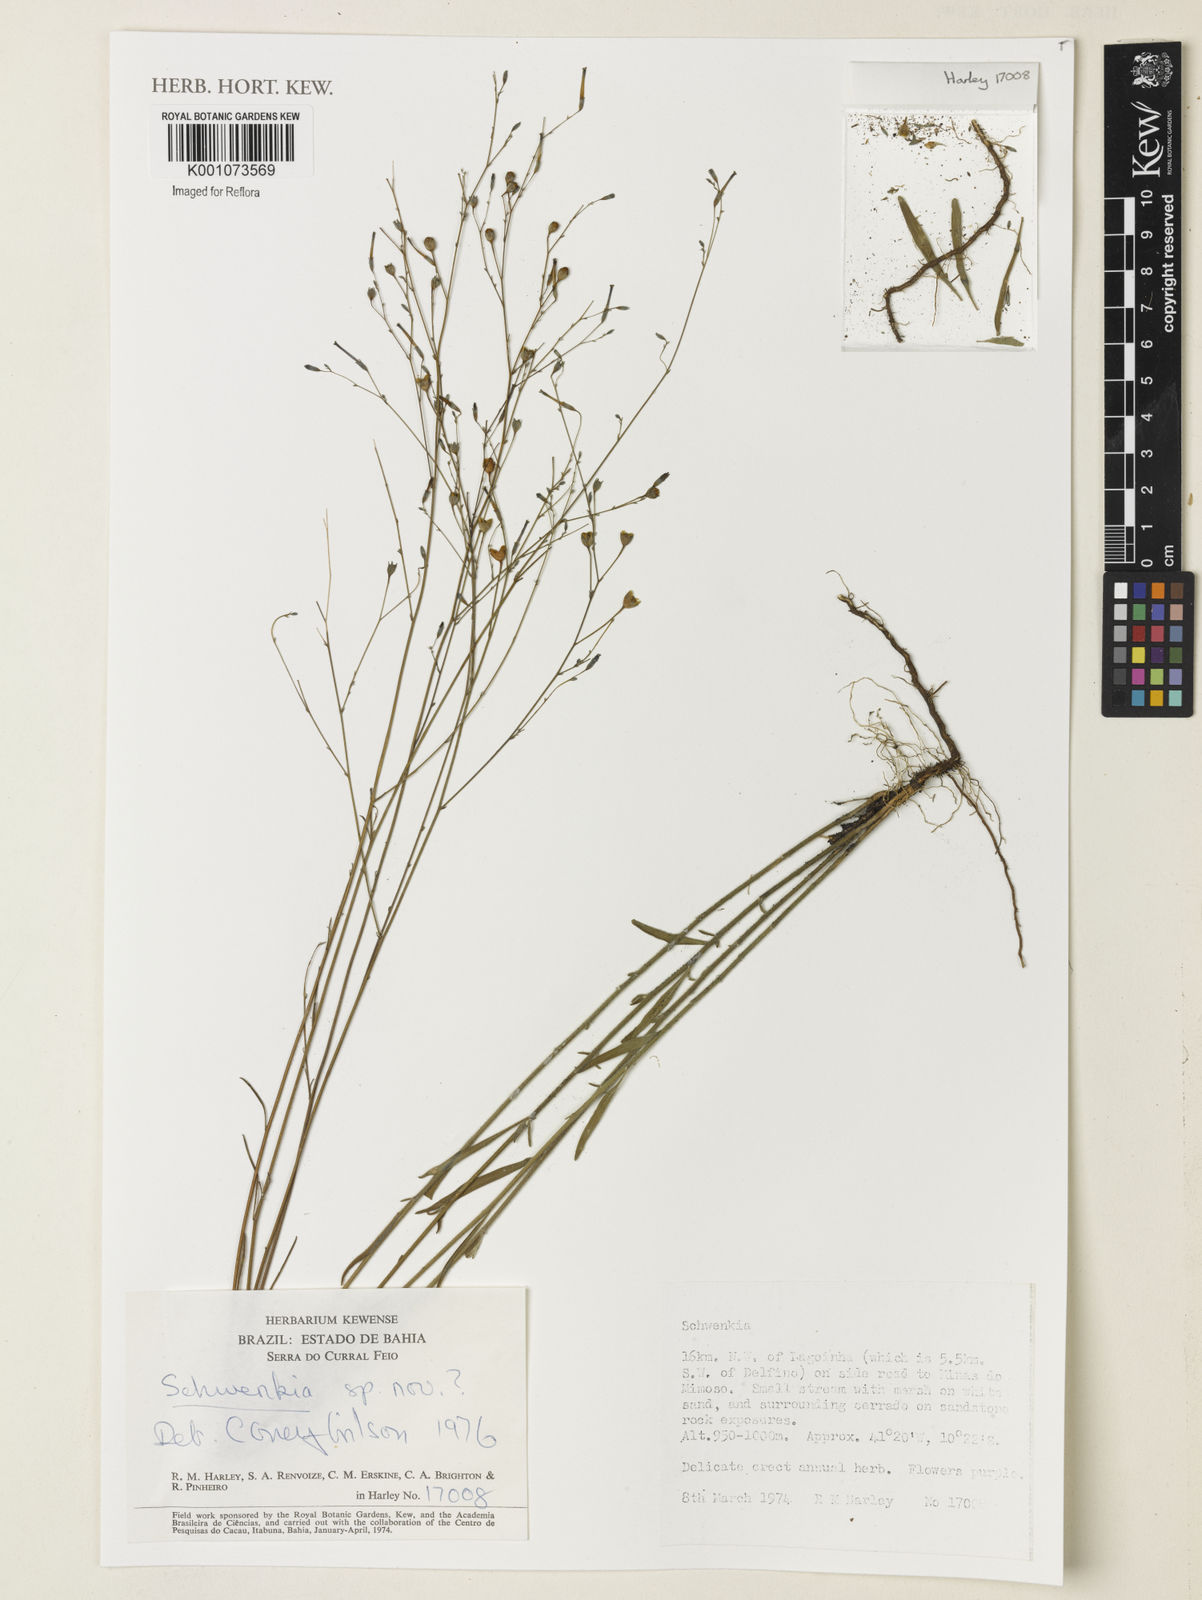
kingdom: Plantae
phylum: Tracheophyta
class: Magnoliopsida
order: Solanales
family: Solanaceae
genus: Schwenckia
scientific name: Schwenckia
